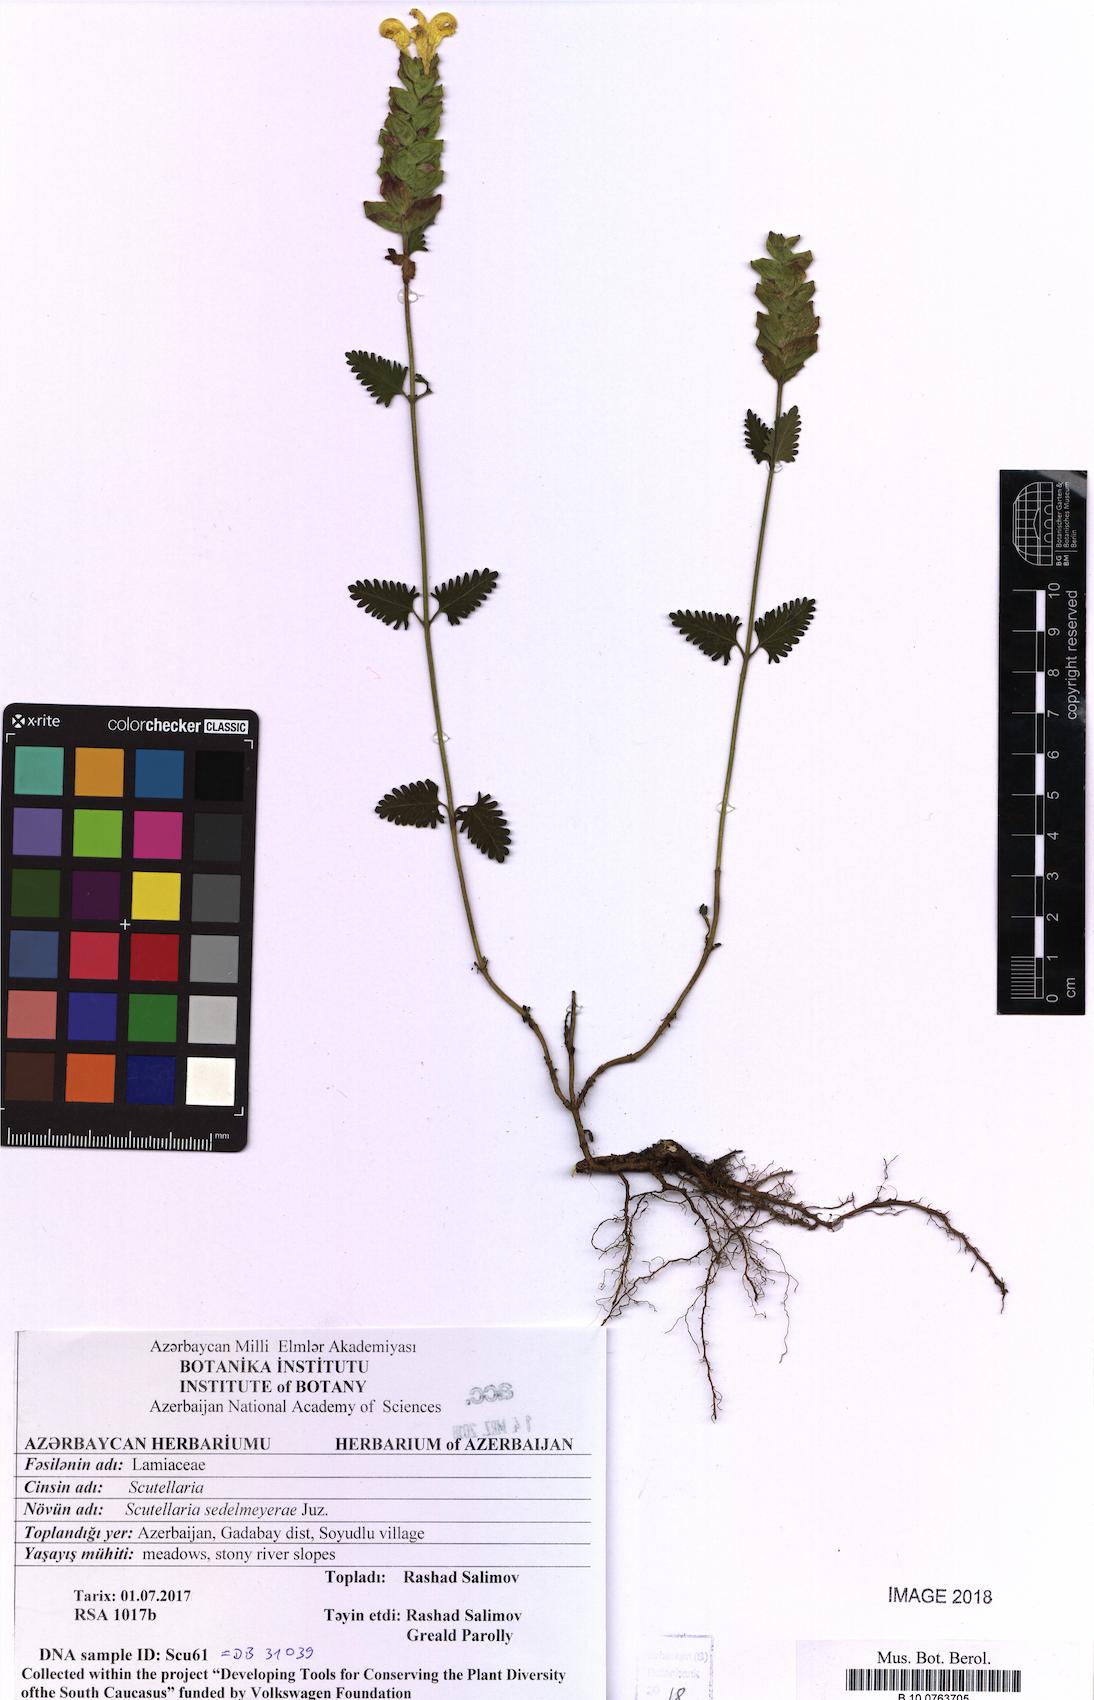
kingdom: Plantae
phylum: Tracheophyta
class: Magnoliopsida
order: Lamiales
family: Lamiaceae
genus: Scutellaria
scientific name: Scutellaria sedelmeyerae
